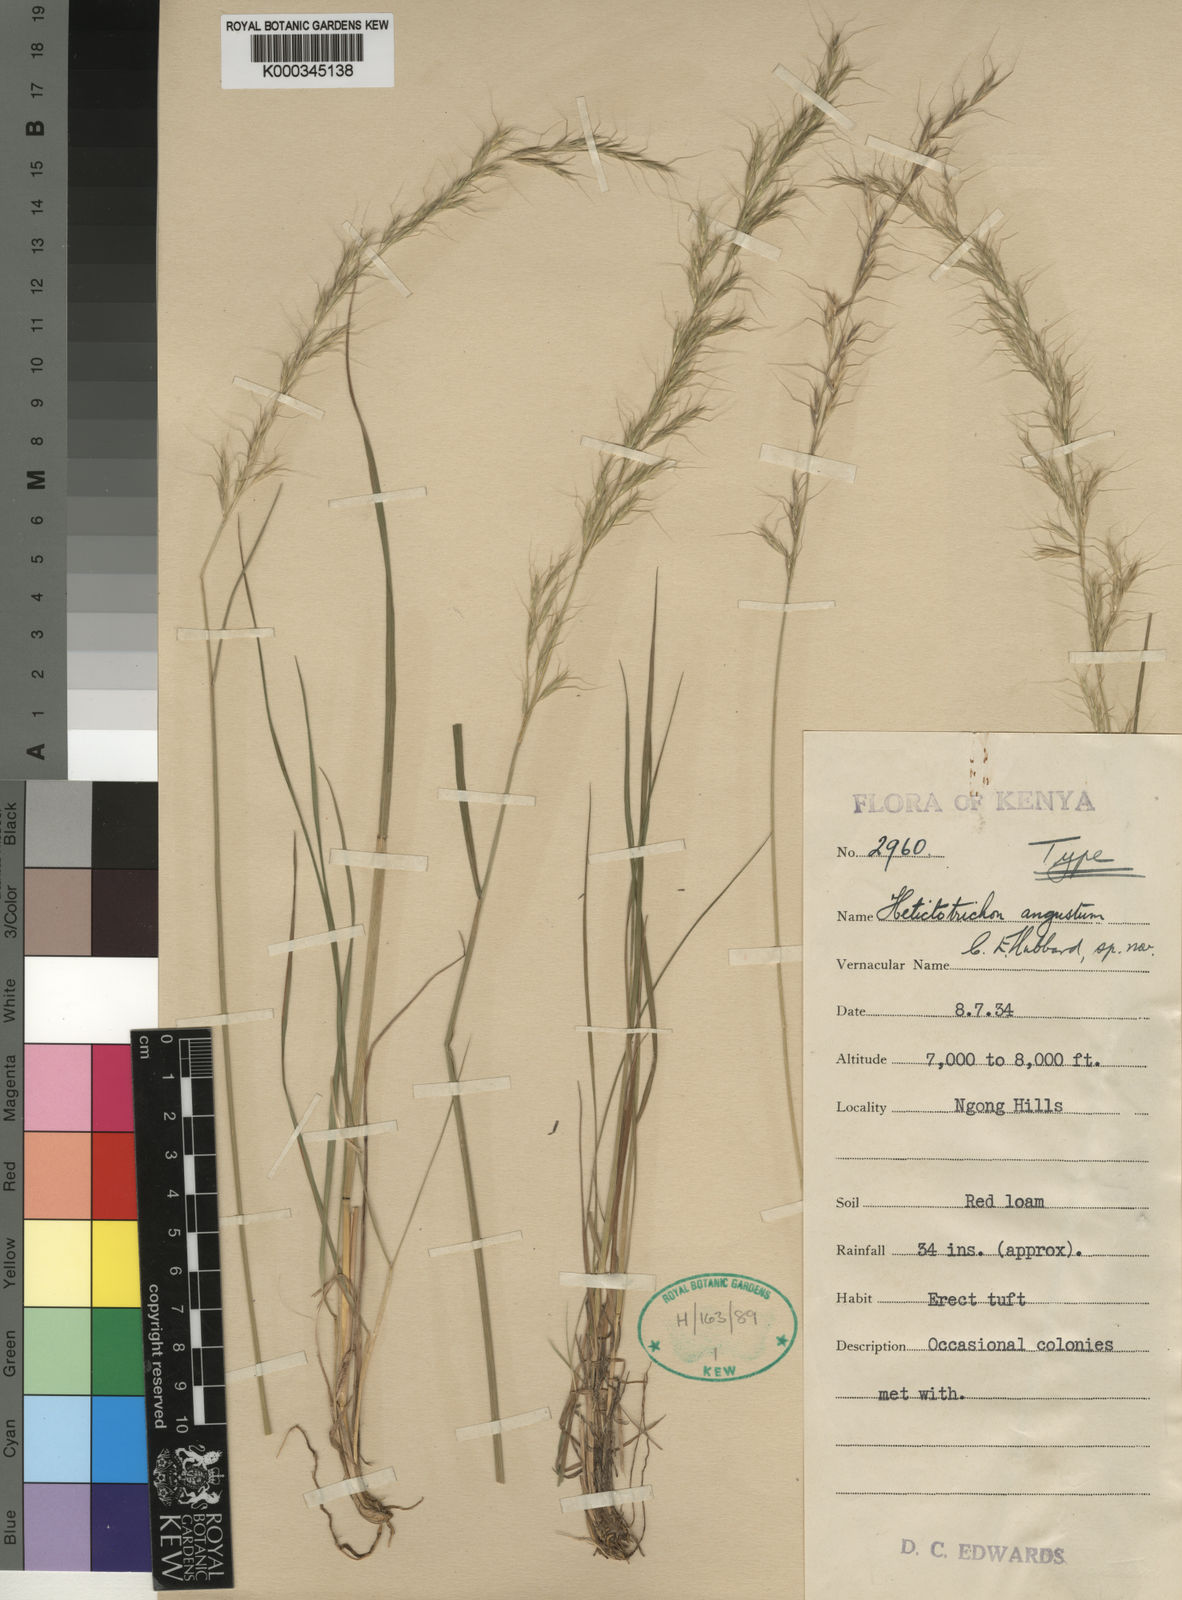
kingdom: Plantae
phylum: Tracheophyta
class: Liliopsida
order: Poales
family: Poaceae
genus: Trisetopsis
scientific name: Trisetopsis angusta
